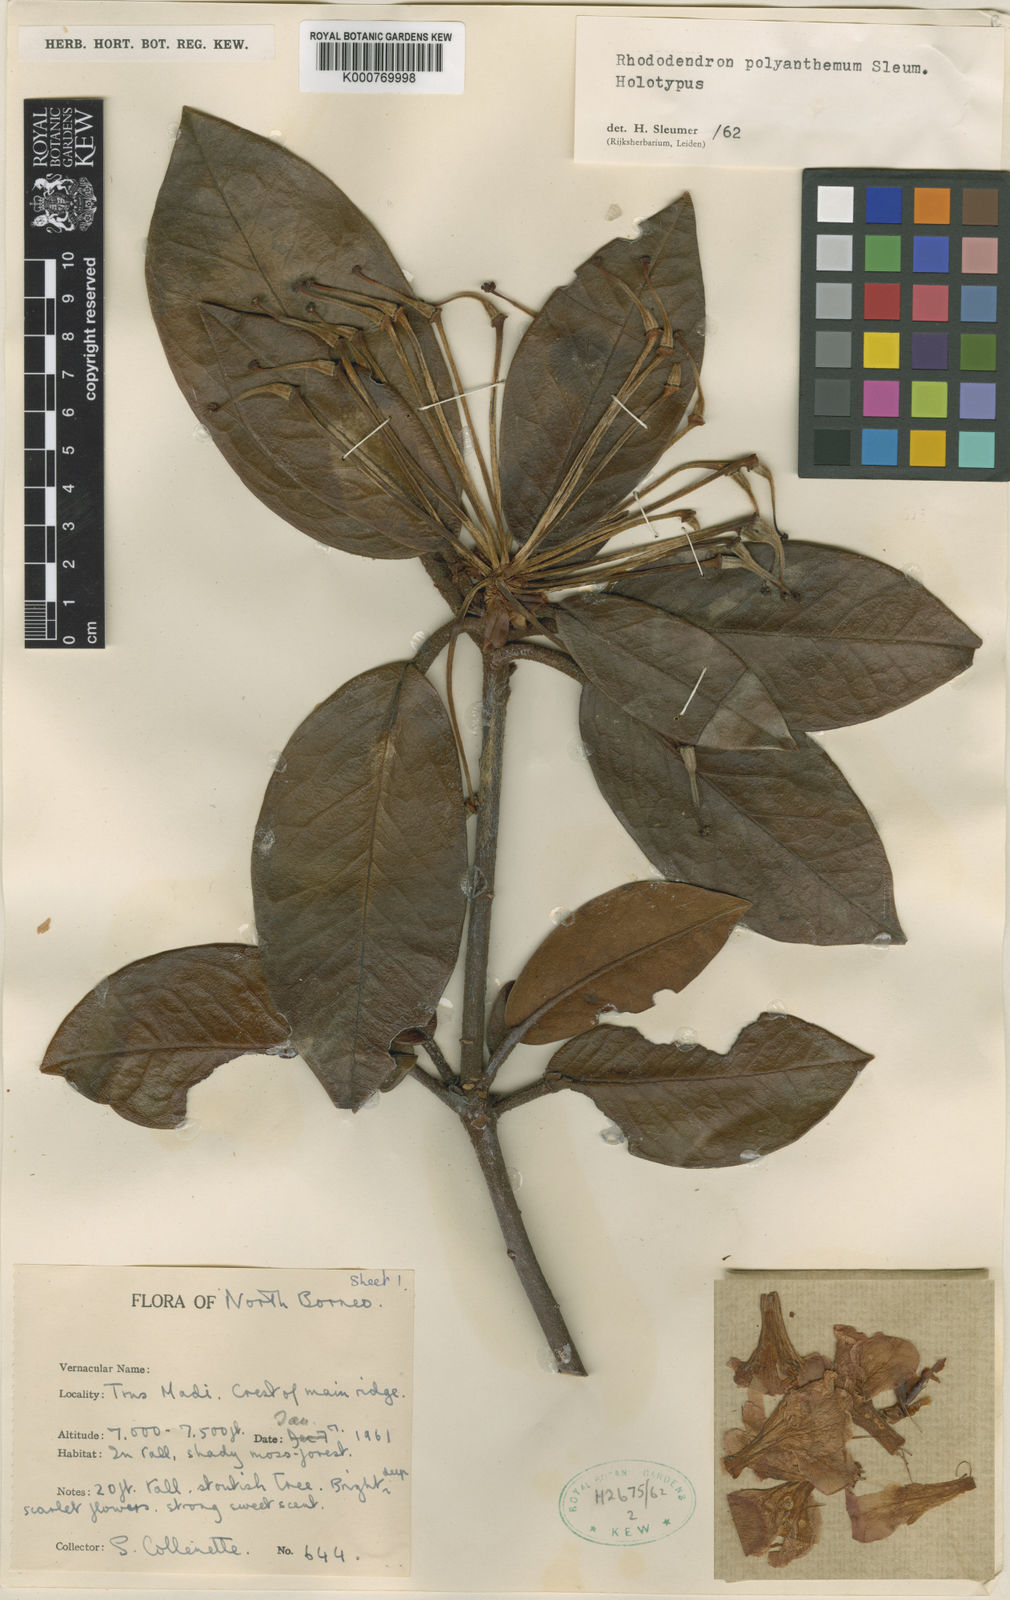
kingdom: Plantae
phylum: Tracheophyta
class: Magnoliopsida
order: Ericales
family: Ericaceae
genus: Rhododendron
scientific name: Rhododendron polyanthemum
